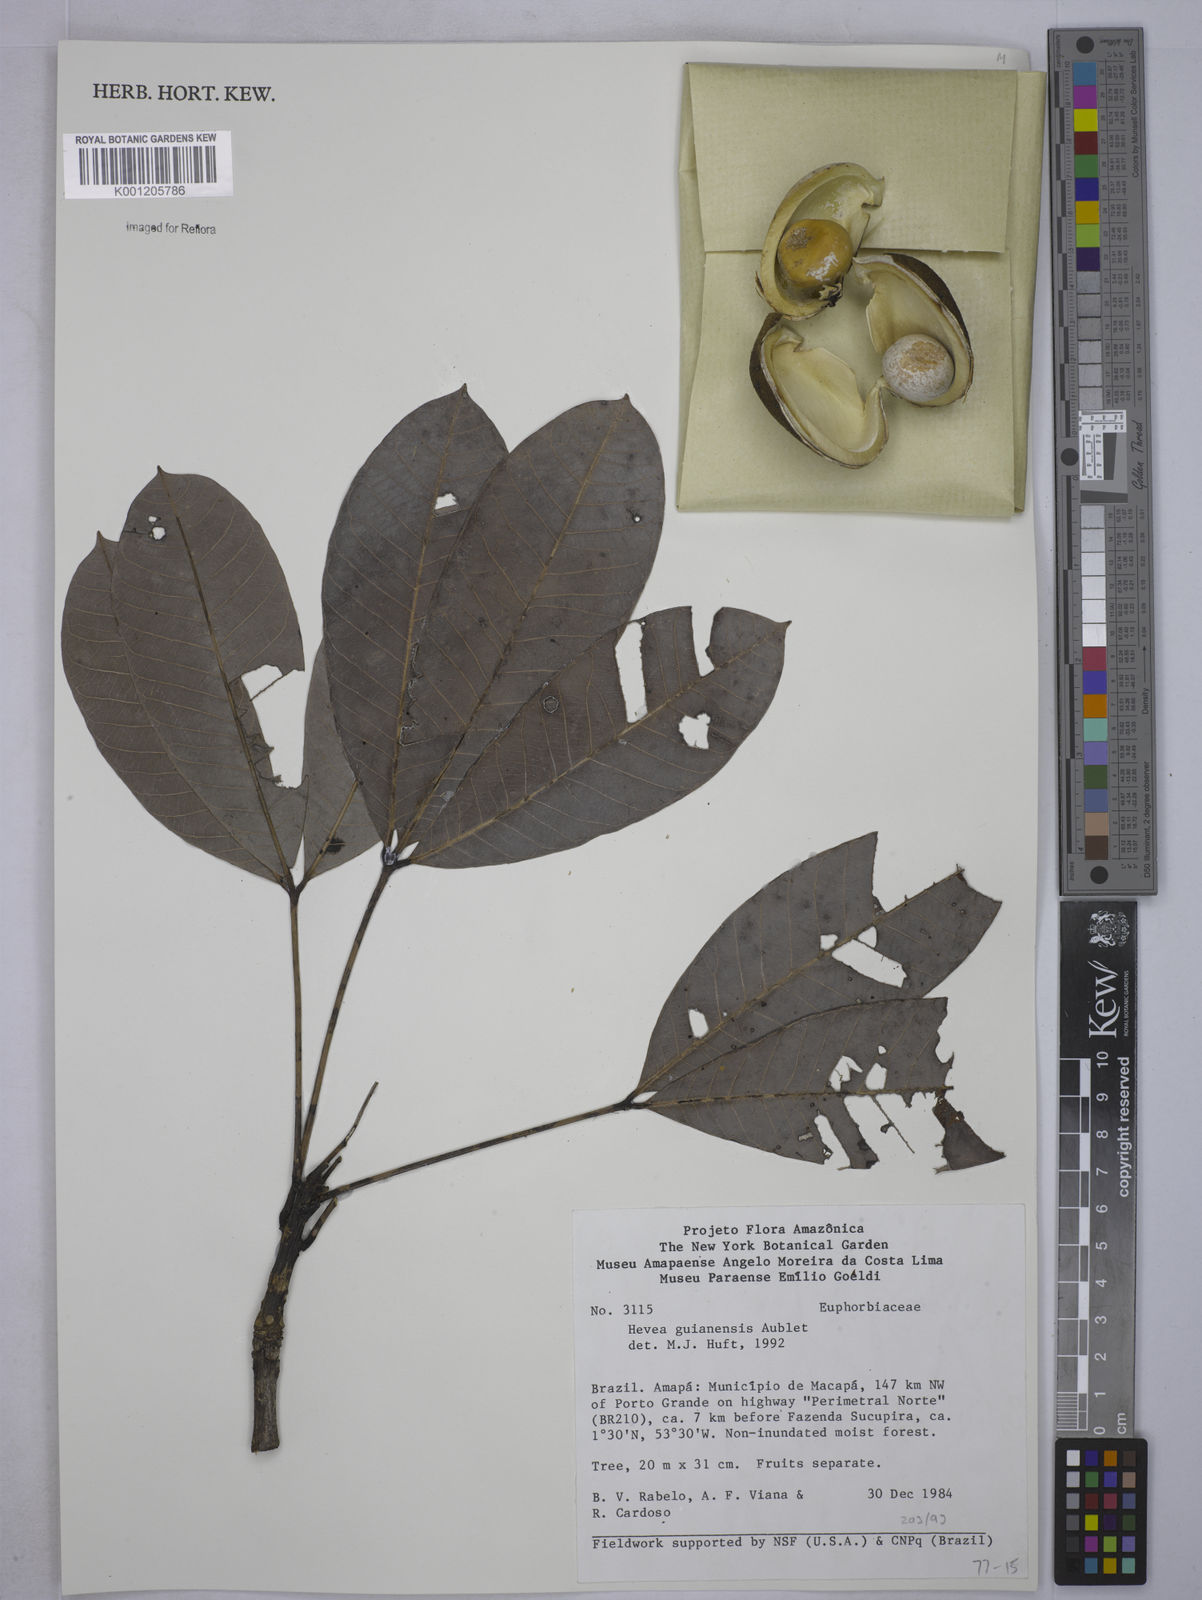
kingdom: Plantae
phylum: Tracheophyta
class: Magnoliopsida
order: Malpighiales
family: Euphorbiaceae
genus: Hevea
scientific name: Hevea guianensis
